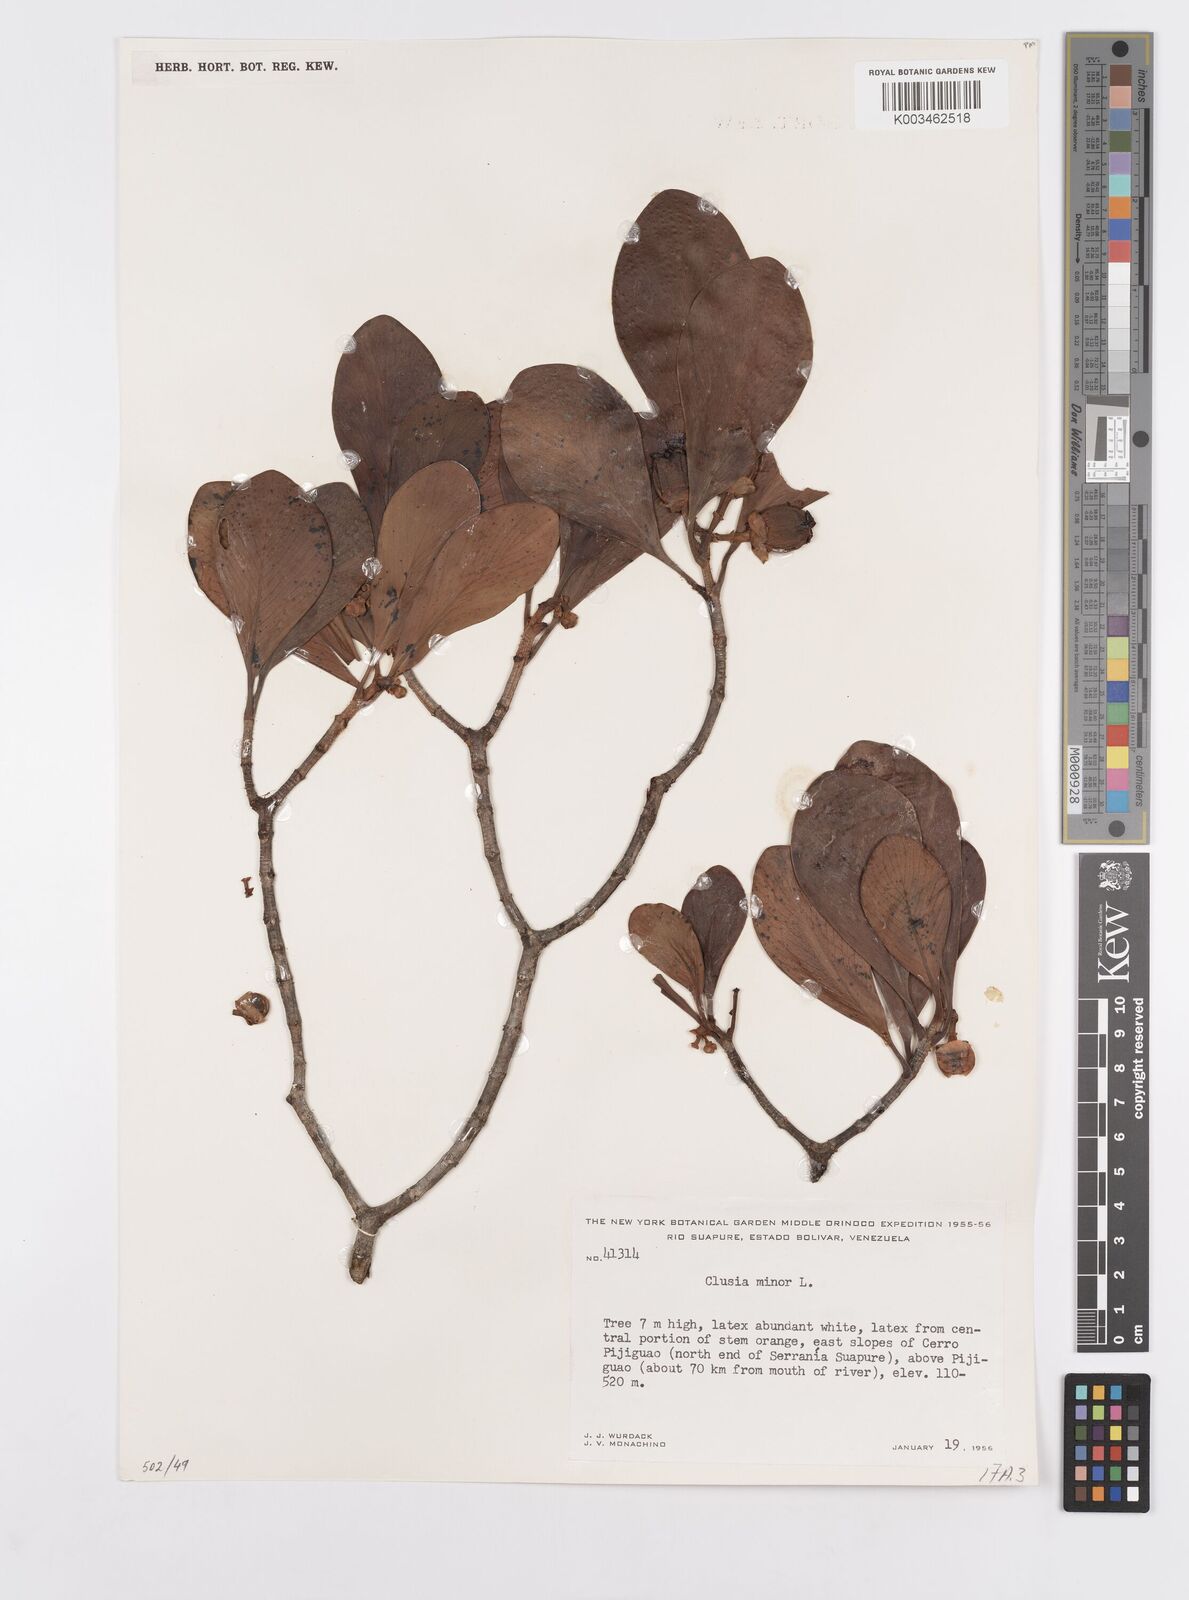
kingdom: Plantae
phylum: Tracheophyta
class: Magnoliopsida
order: Malpighiales
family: Clusiaceae
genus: Clusia
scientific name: Clusia minor
